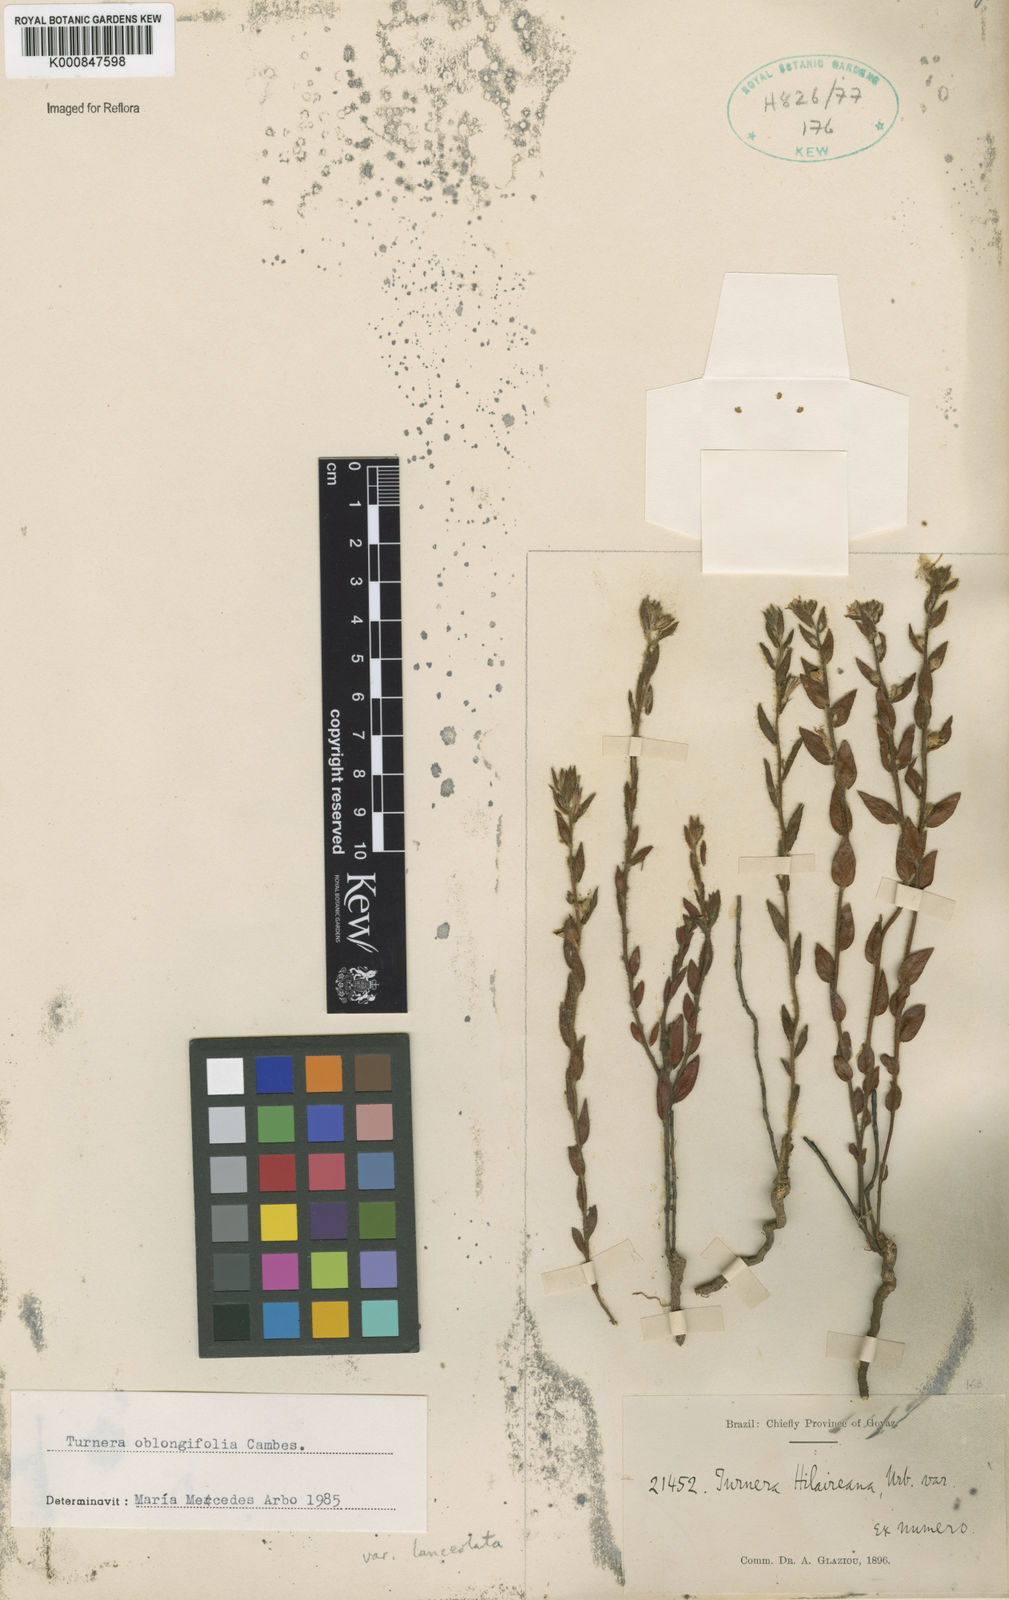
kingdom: Plantae
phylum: Tracheophyta
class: Magnoliopsida
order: Malpighiales
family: Turneraceae
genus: Turnera
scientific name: Turnera oblongifolia
